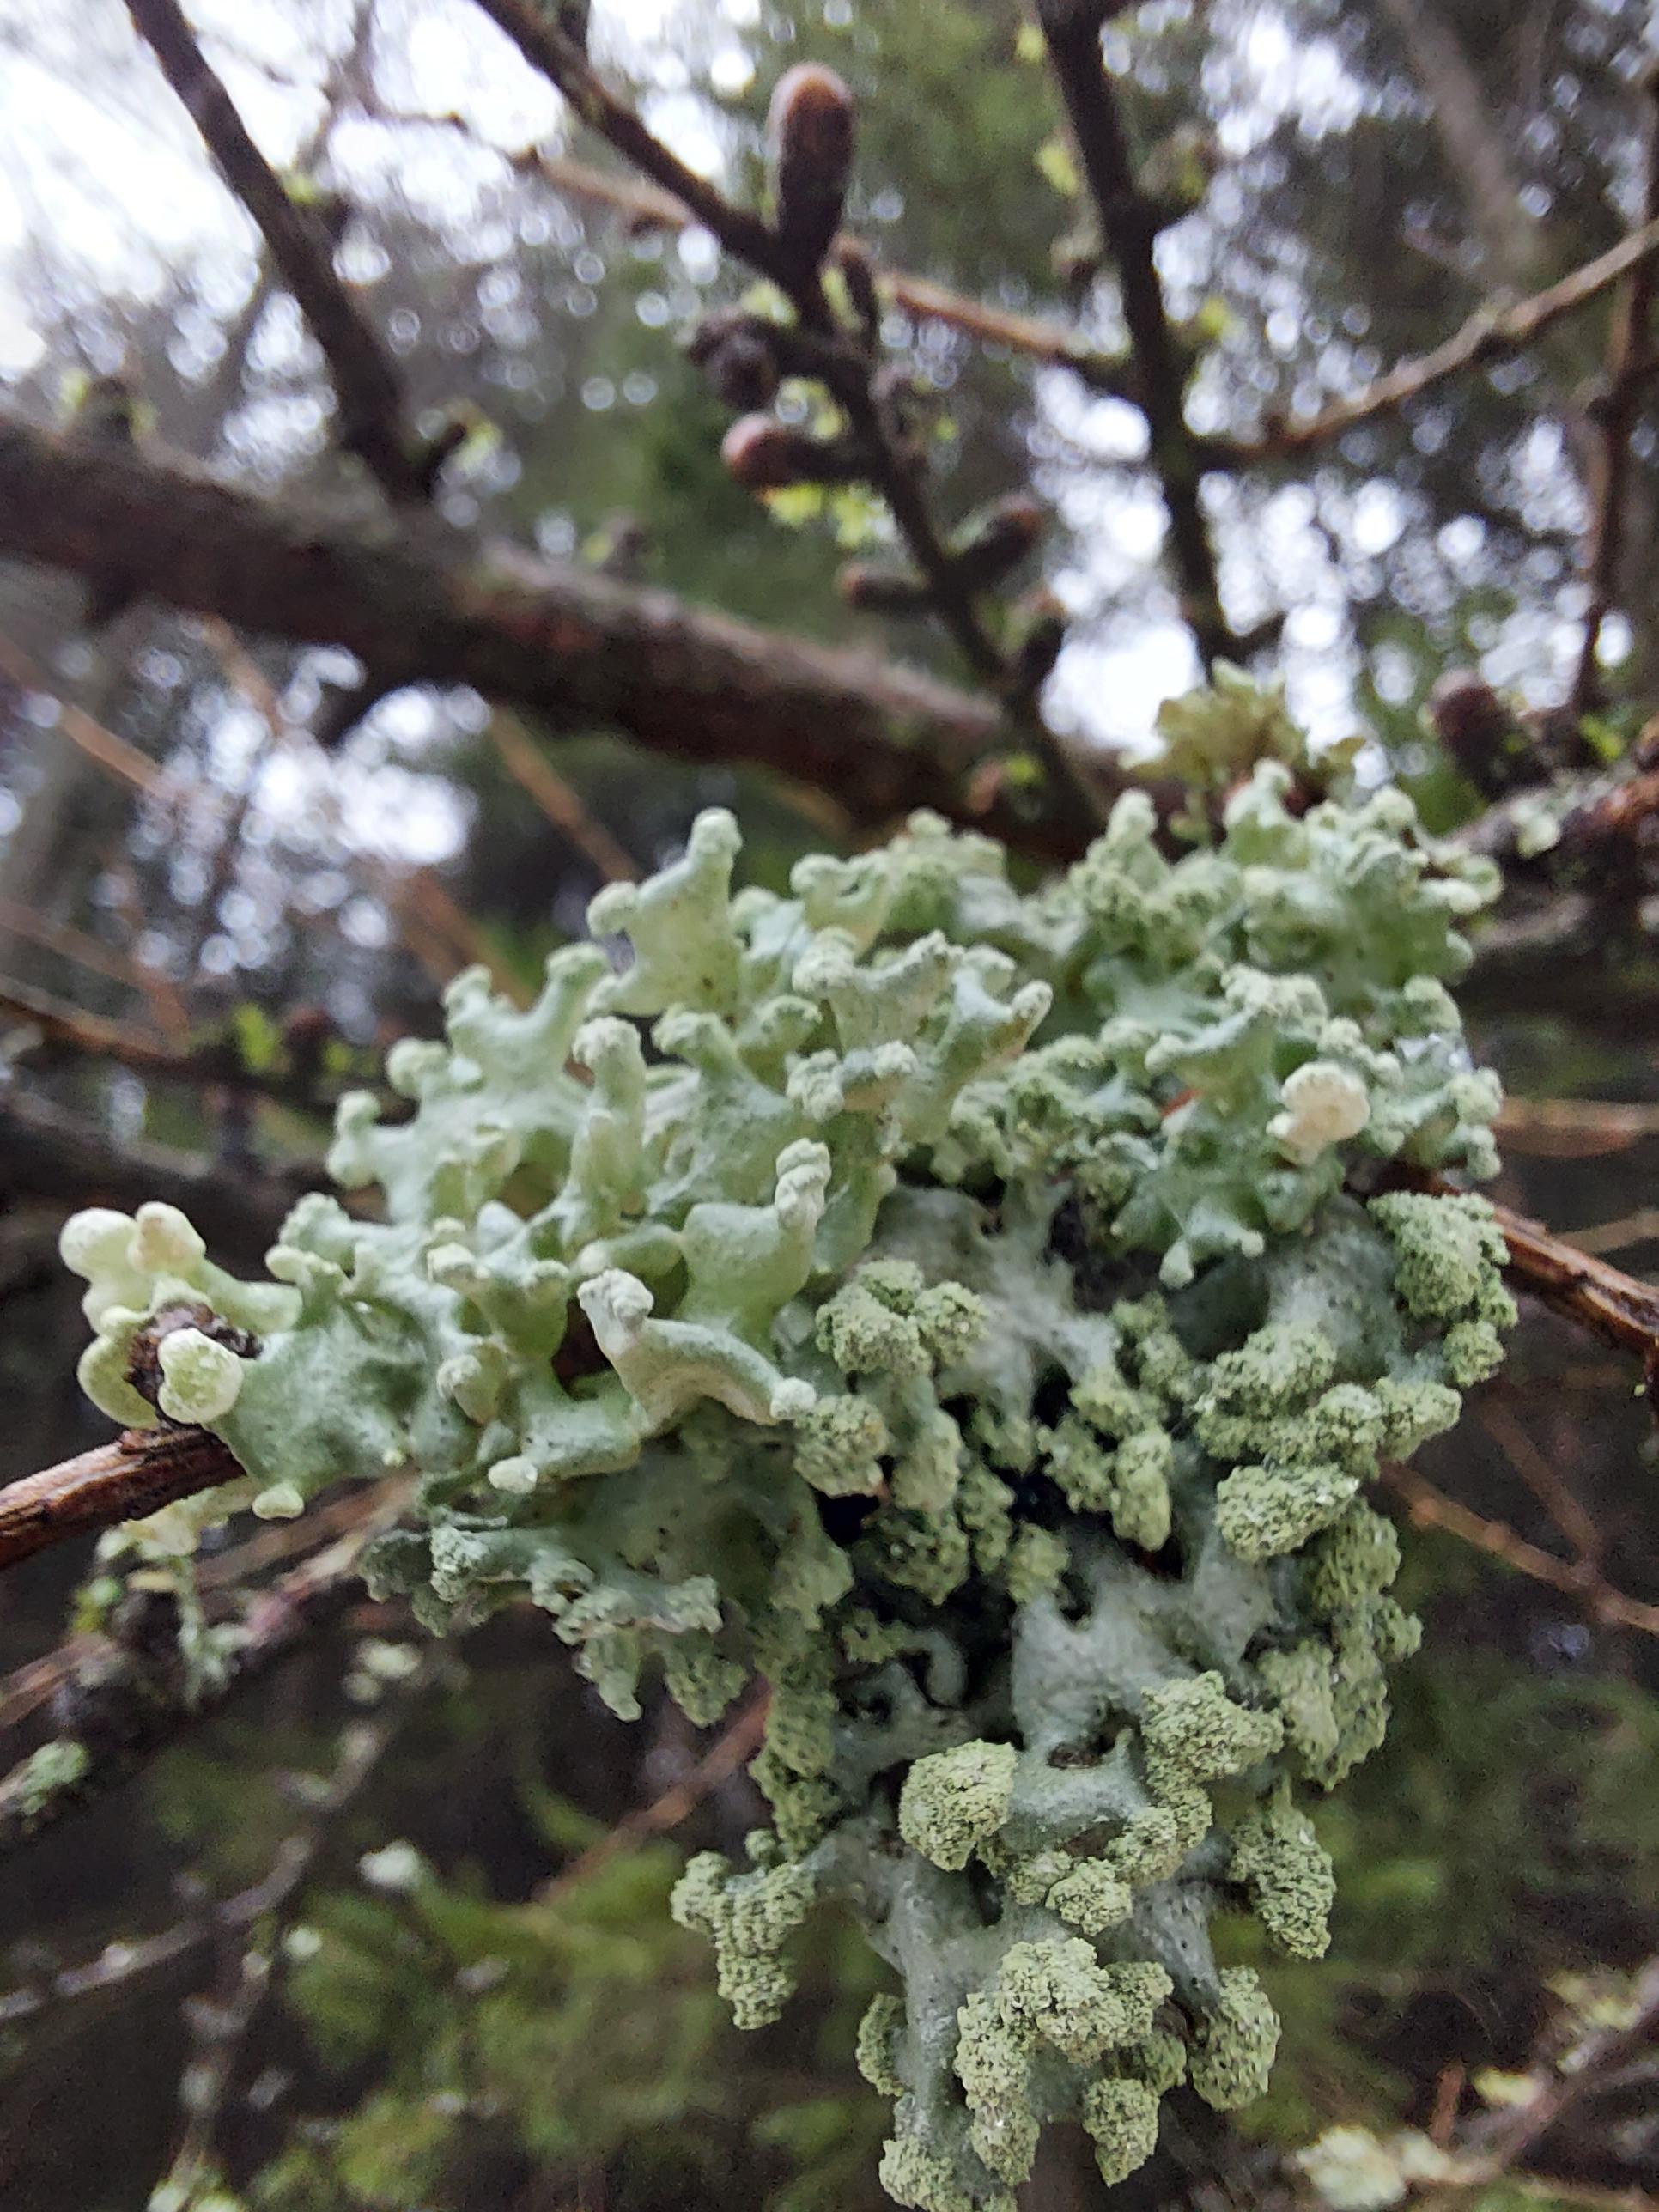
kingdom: Fungi
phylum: Ascomycota
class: Lecanoromycetes
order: Lecanorales
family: Parmeliaceae
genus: Hypogymnia
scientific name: Hypogymnia tubulosa
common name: finger-kvistlav
